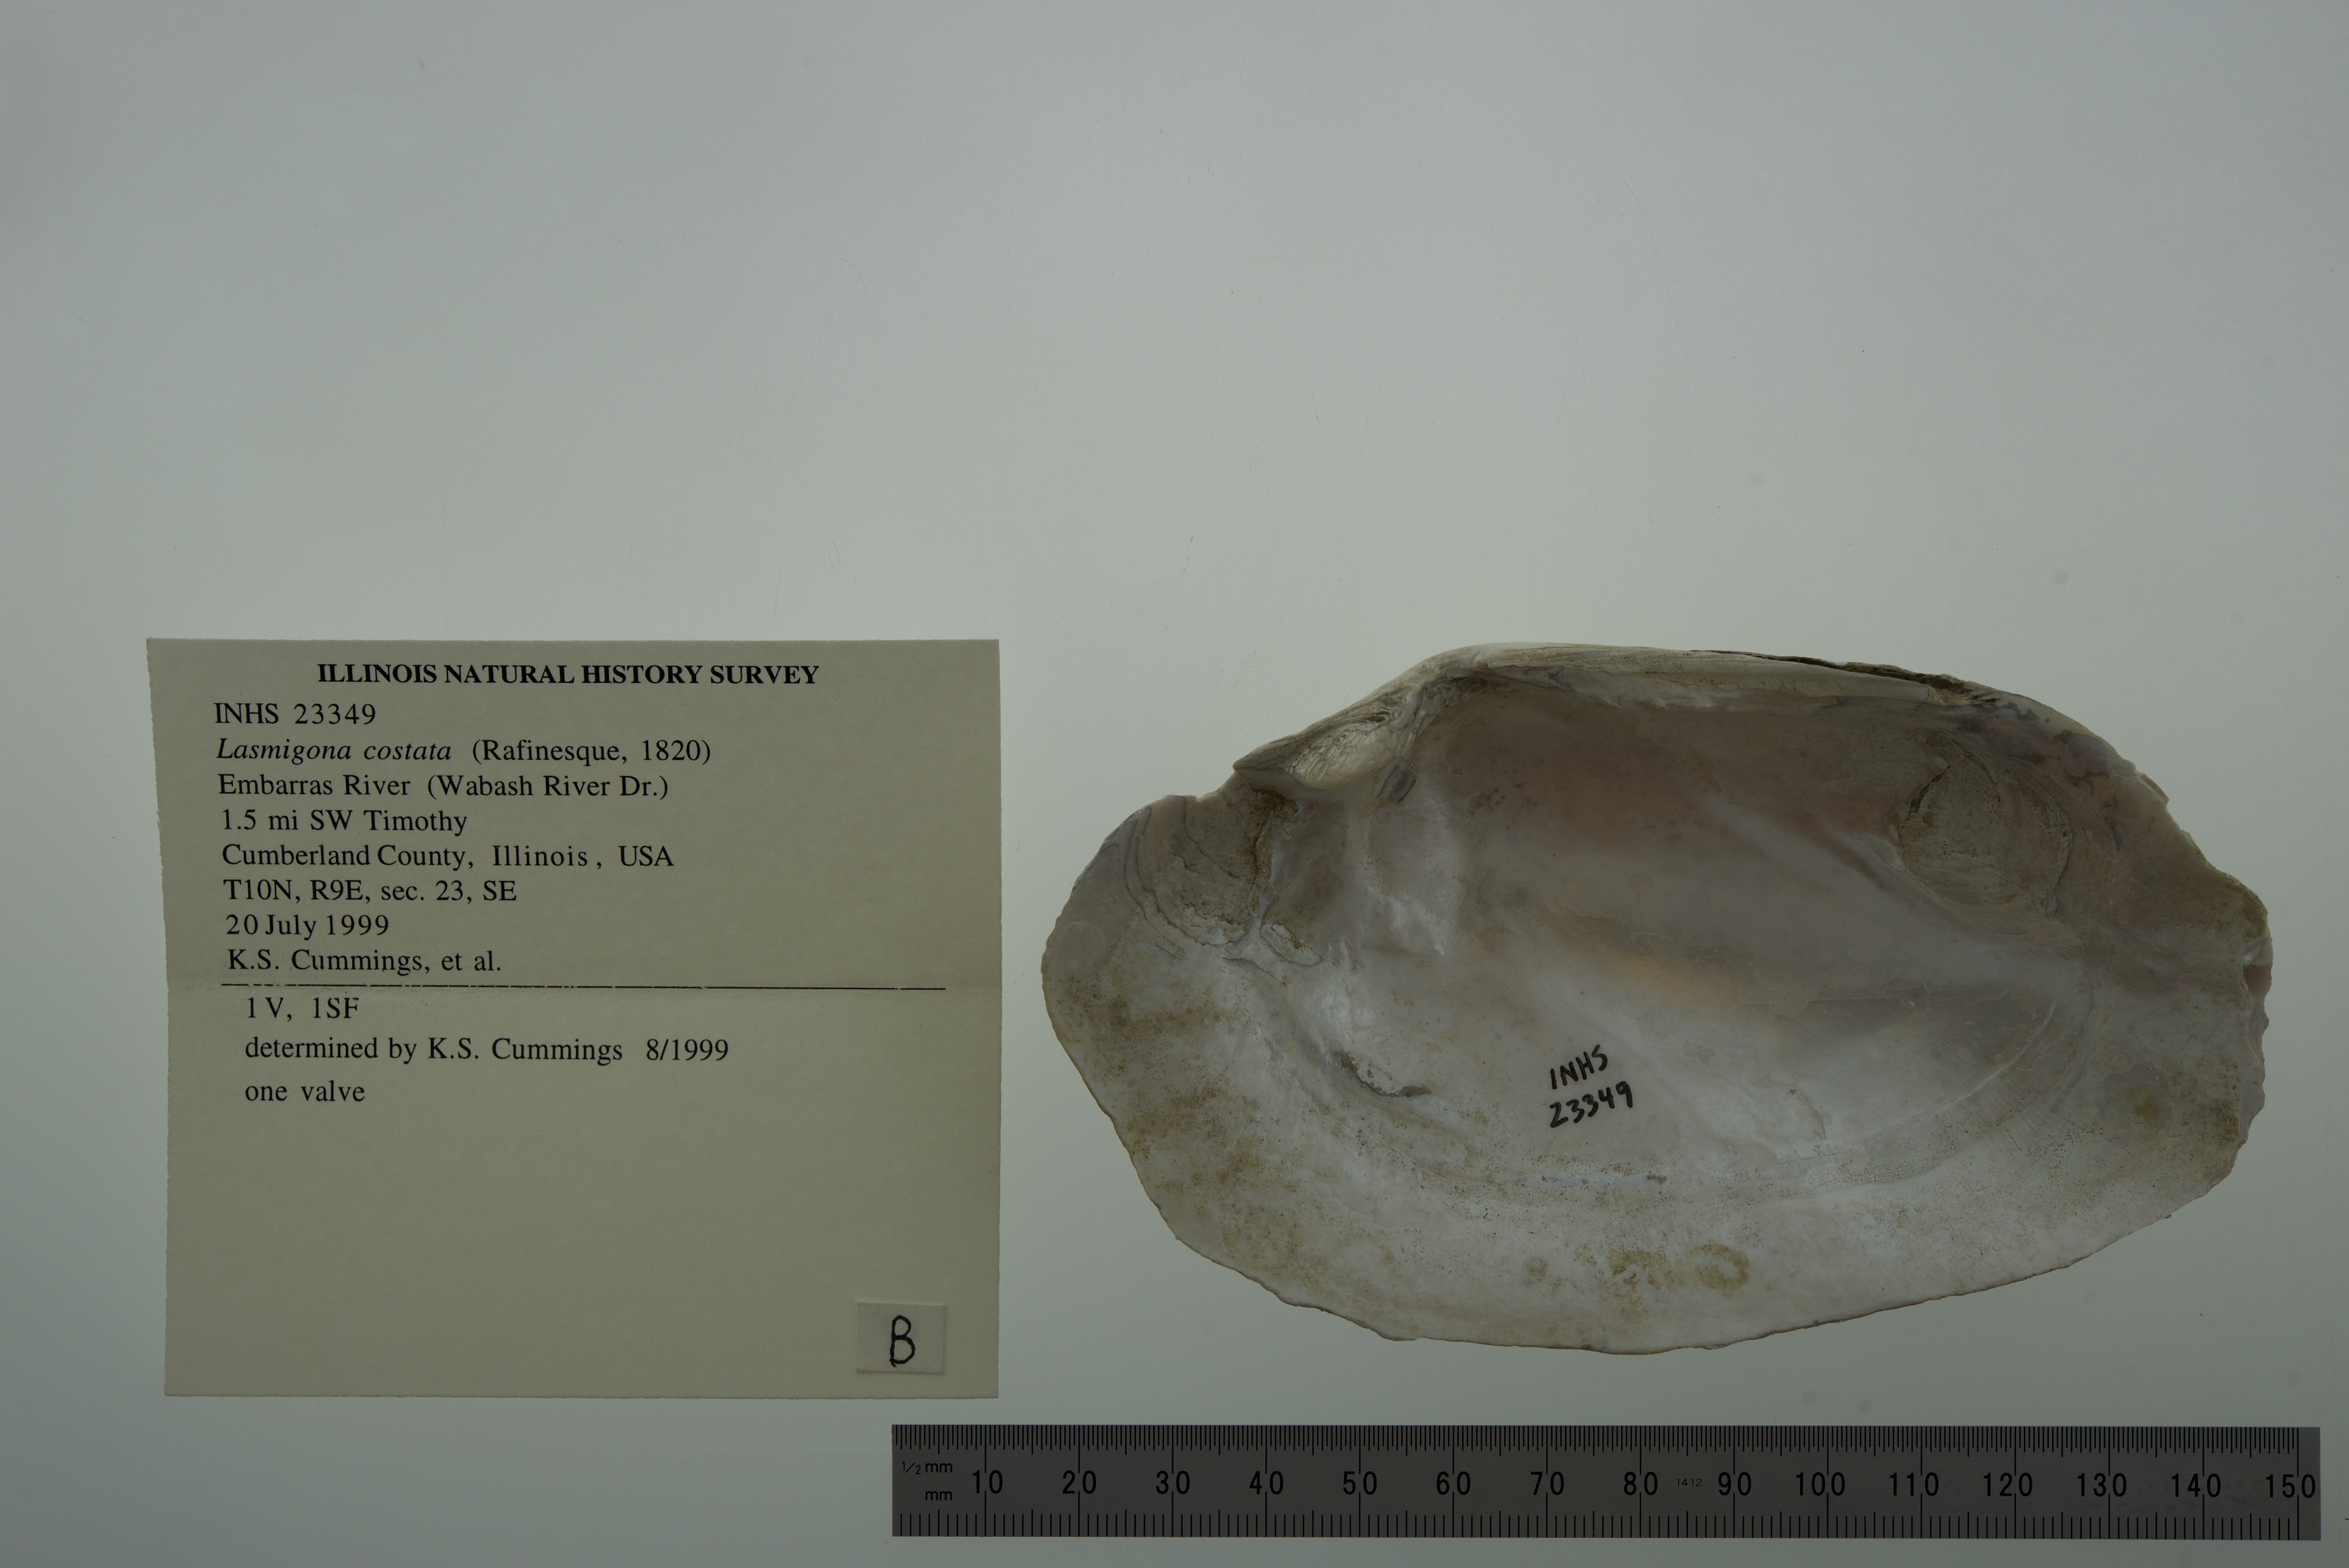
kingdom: Animalia
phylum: Mollusca
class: Bivalvia
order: Unionida
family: Unionidae
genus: Lasmigona
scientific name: Lasmigona costata
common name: Flutedshell
